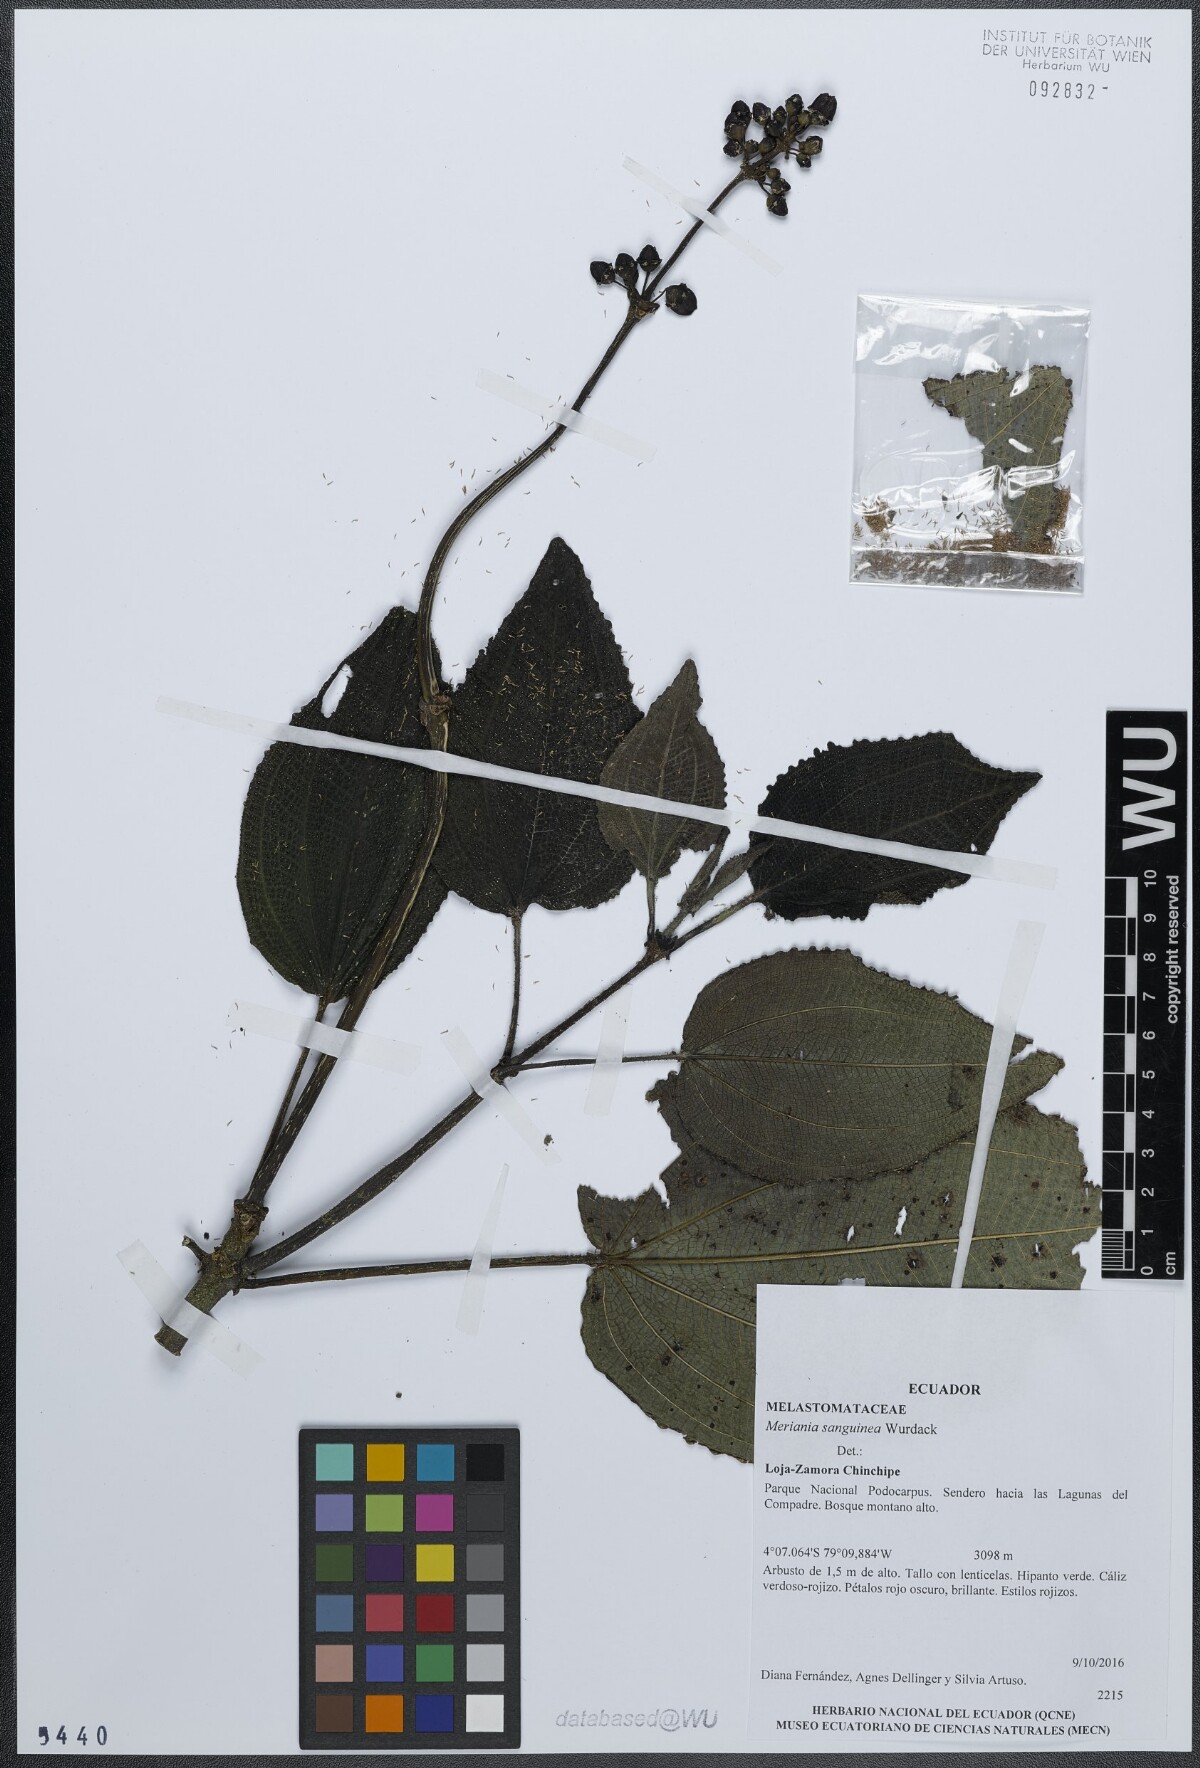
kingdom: Plantae
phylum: Tracheophyta
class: Magnoliopsida
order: Myrtales
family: Melastomataceae
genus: Meriania
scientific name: Meriania sanguinea
